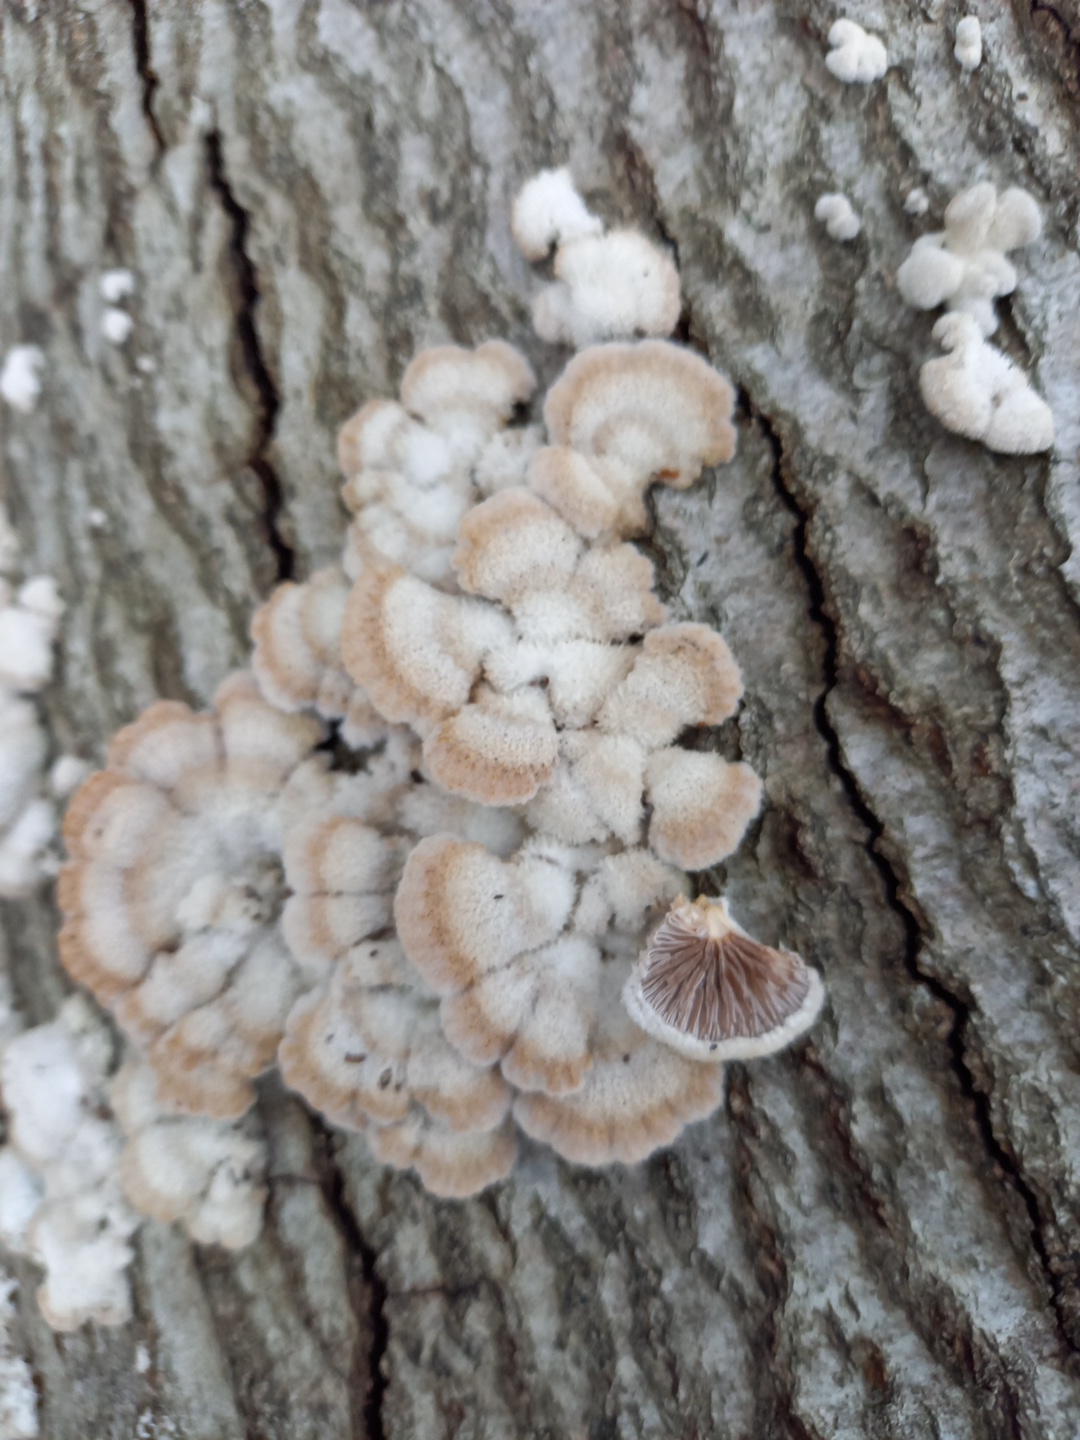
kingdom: Fungi
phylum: Basidiomycota
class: Agaricomycetes
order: Agaricales
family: Schizophyllaceae
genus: Schizophyllum
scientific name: Schizophyllum commune
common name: kløvblad
